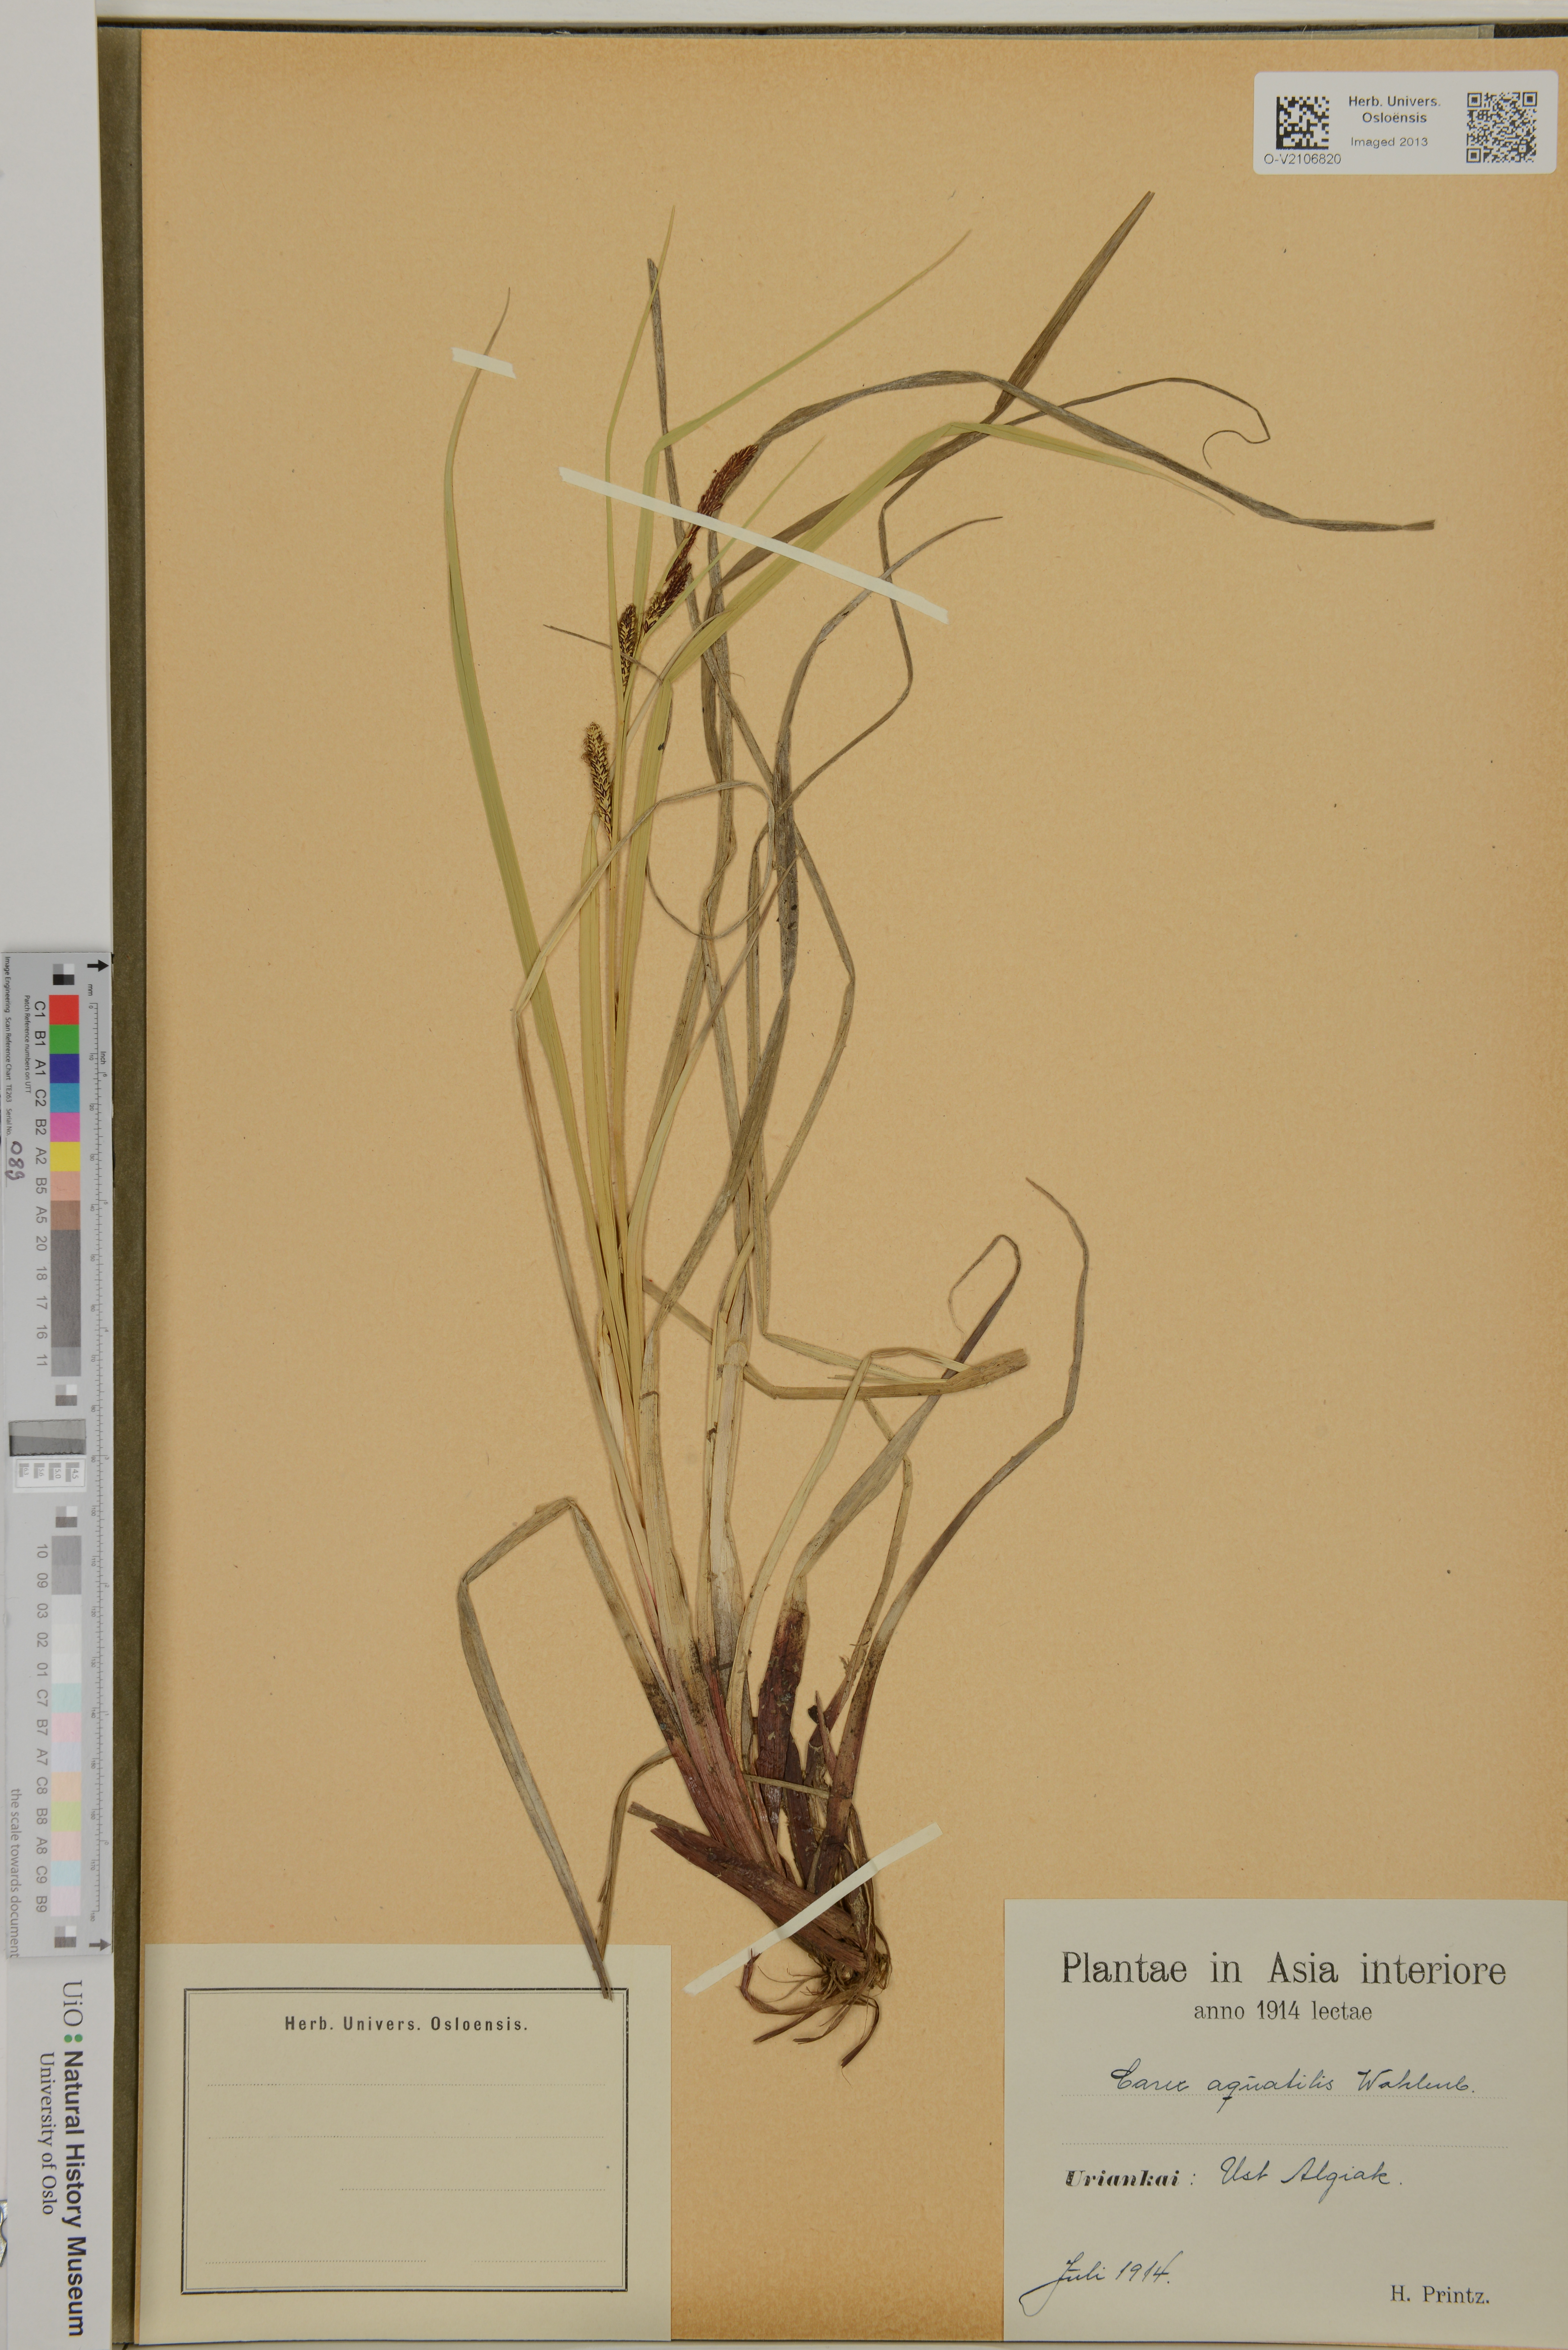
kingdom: Plantae
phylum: Tracheophyta
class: Liliopsida
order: Poales
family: Cyperaceae
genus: Carex
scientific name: Carex aquatilis
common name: Water sedge
